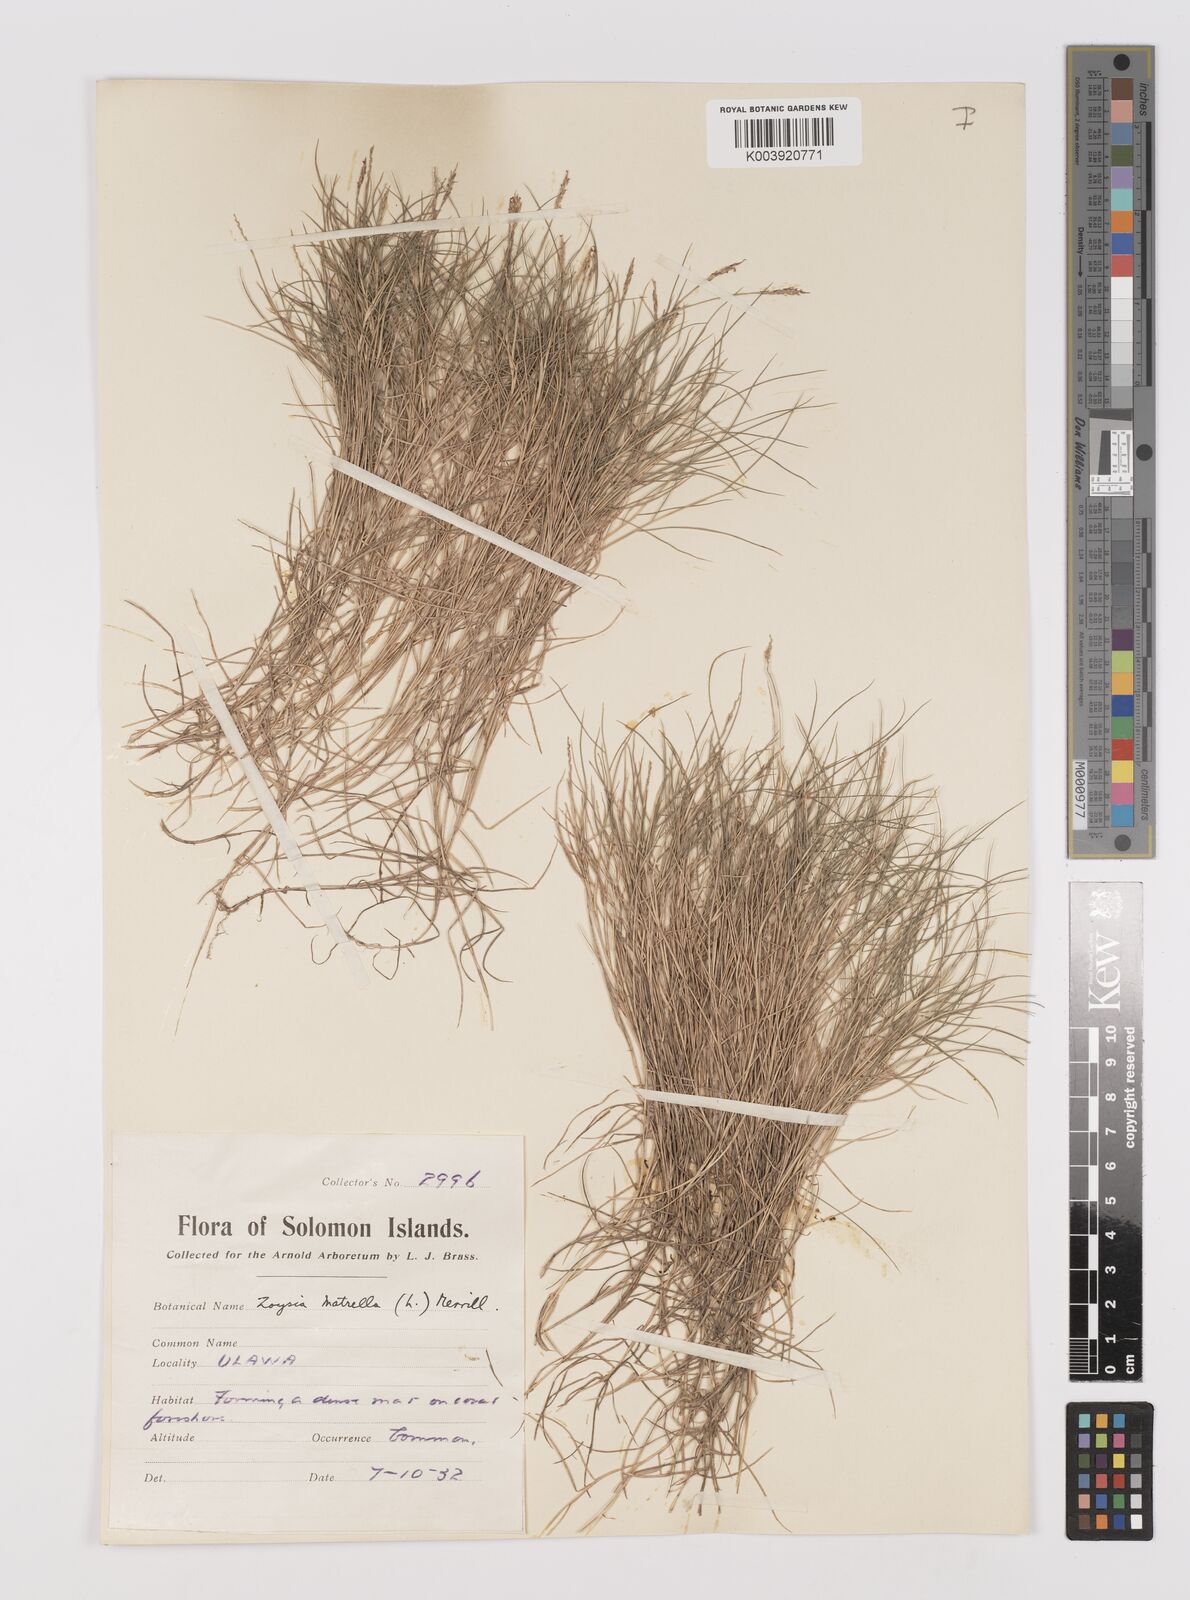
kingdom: Plantae
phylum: Tracheophyta
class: Liliopsida
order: Poales
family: Poaceae
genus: Zoysia
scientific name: Zoysia matrella
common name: Manila grass
